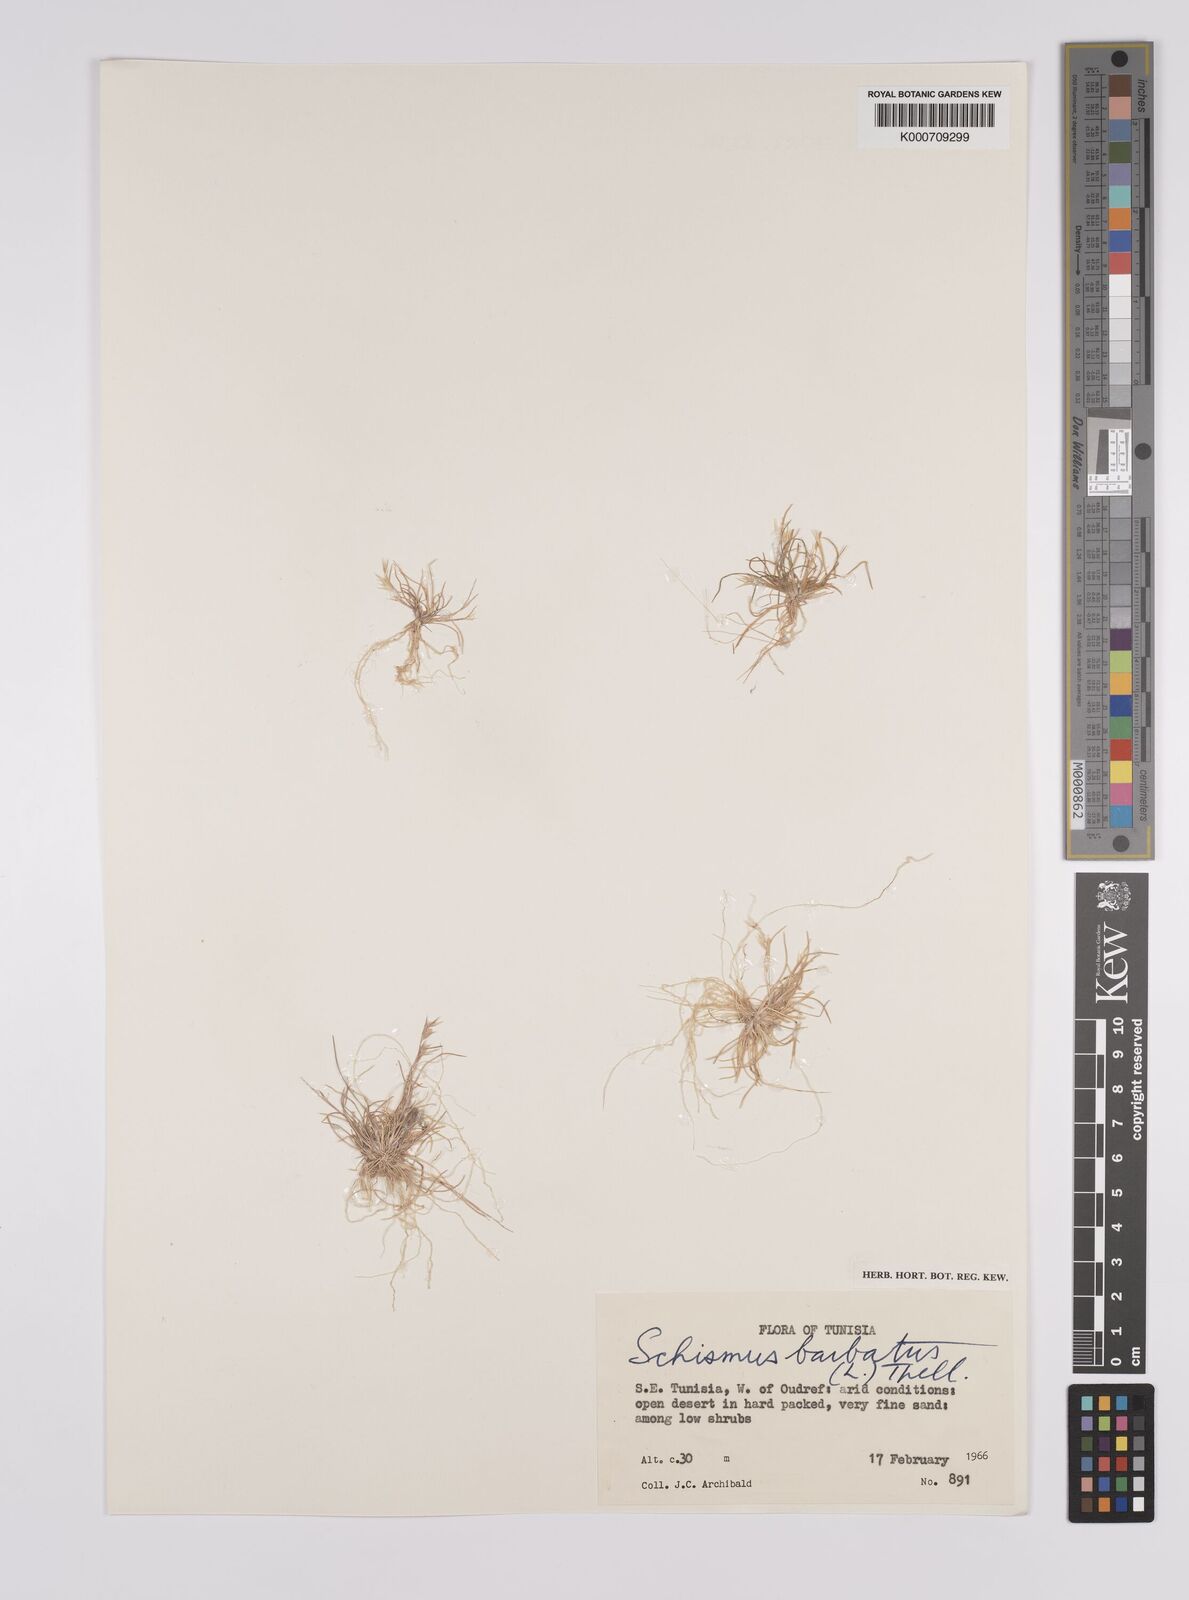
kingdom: Plantae
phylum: Tracheophyta
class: Liliopsida
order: Poales
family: Poaceae
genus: Schismus
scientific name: Schismus barbatus
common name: Kelch-grass
